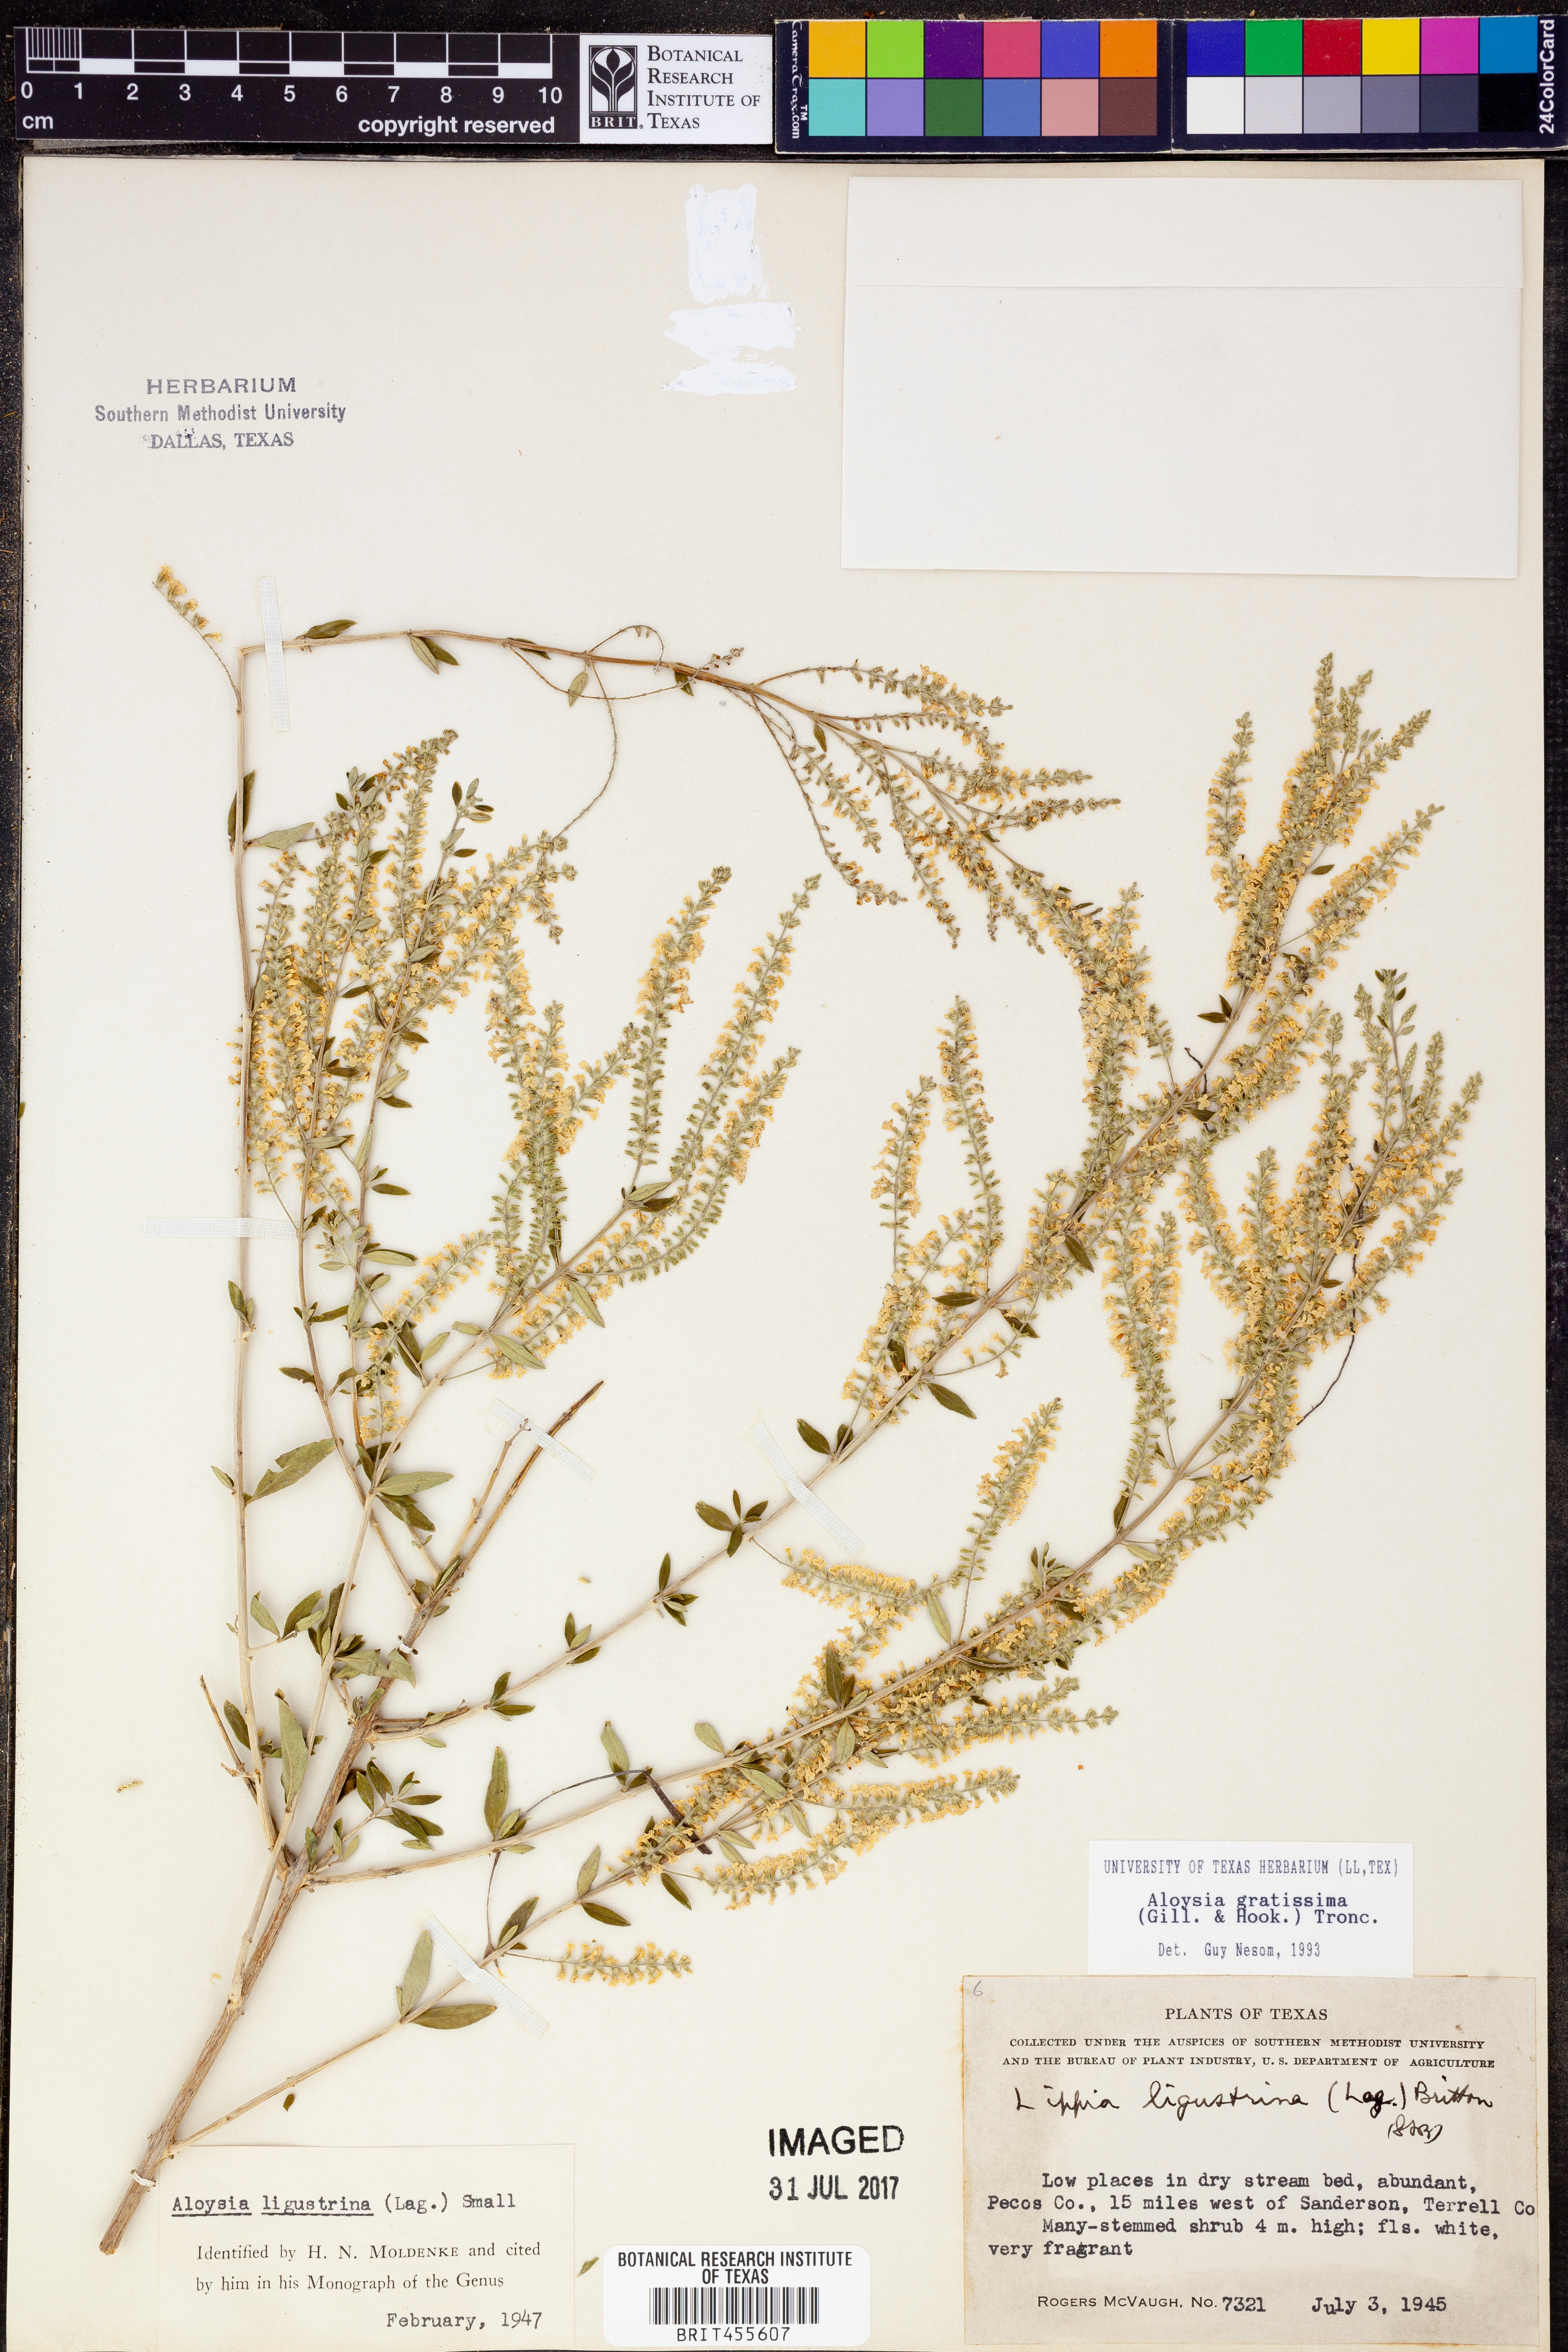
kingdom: Plantae
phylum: Tracheophyta
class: Magnoliopsida
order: Lamiales
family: Verbenaceae
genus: Aloysia
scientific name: Aloysia gratissima
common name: Common bee-brush
